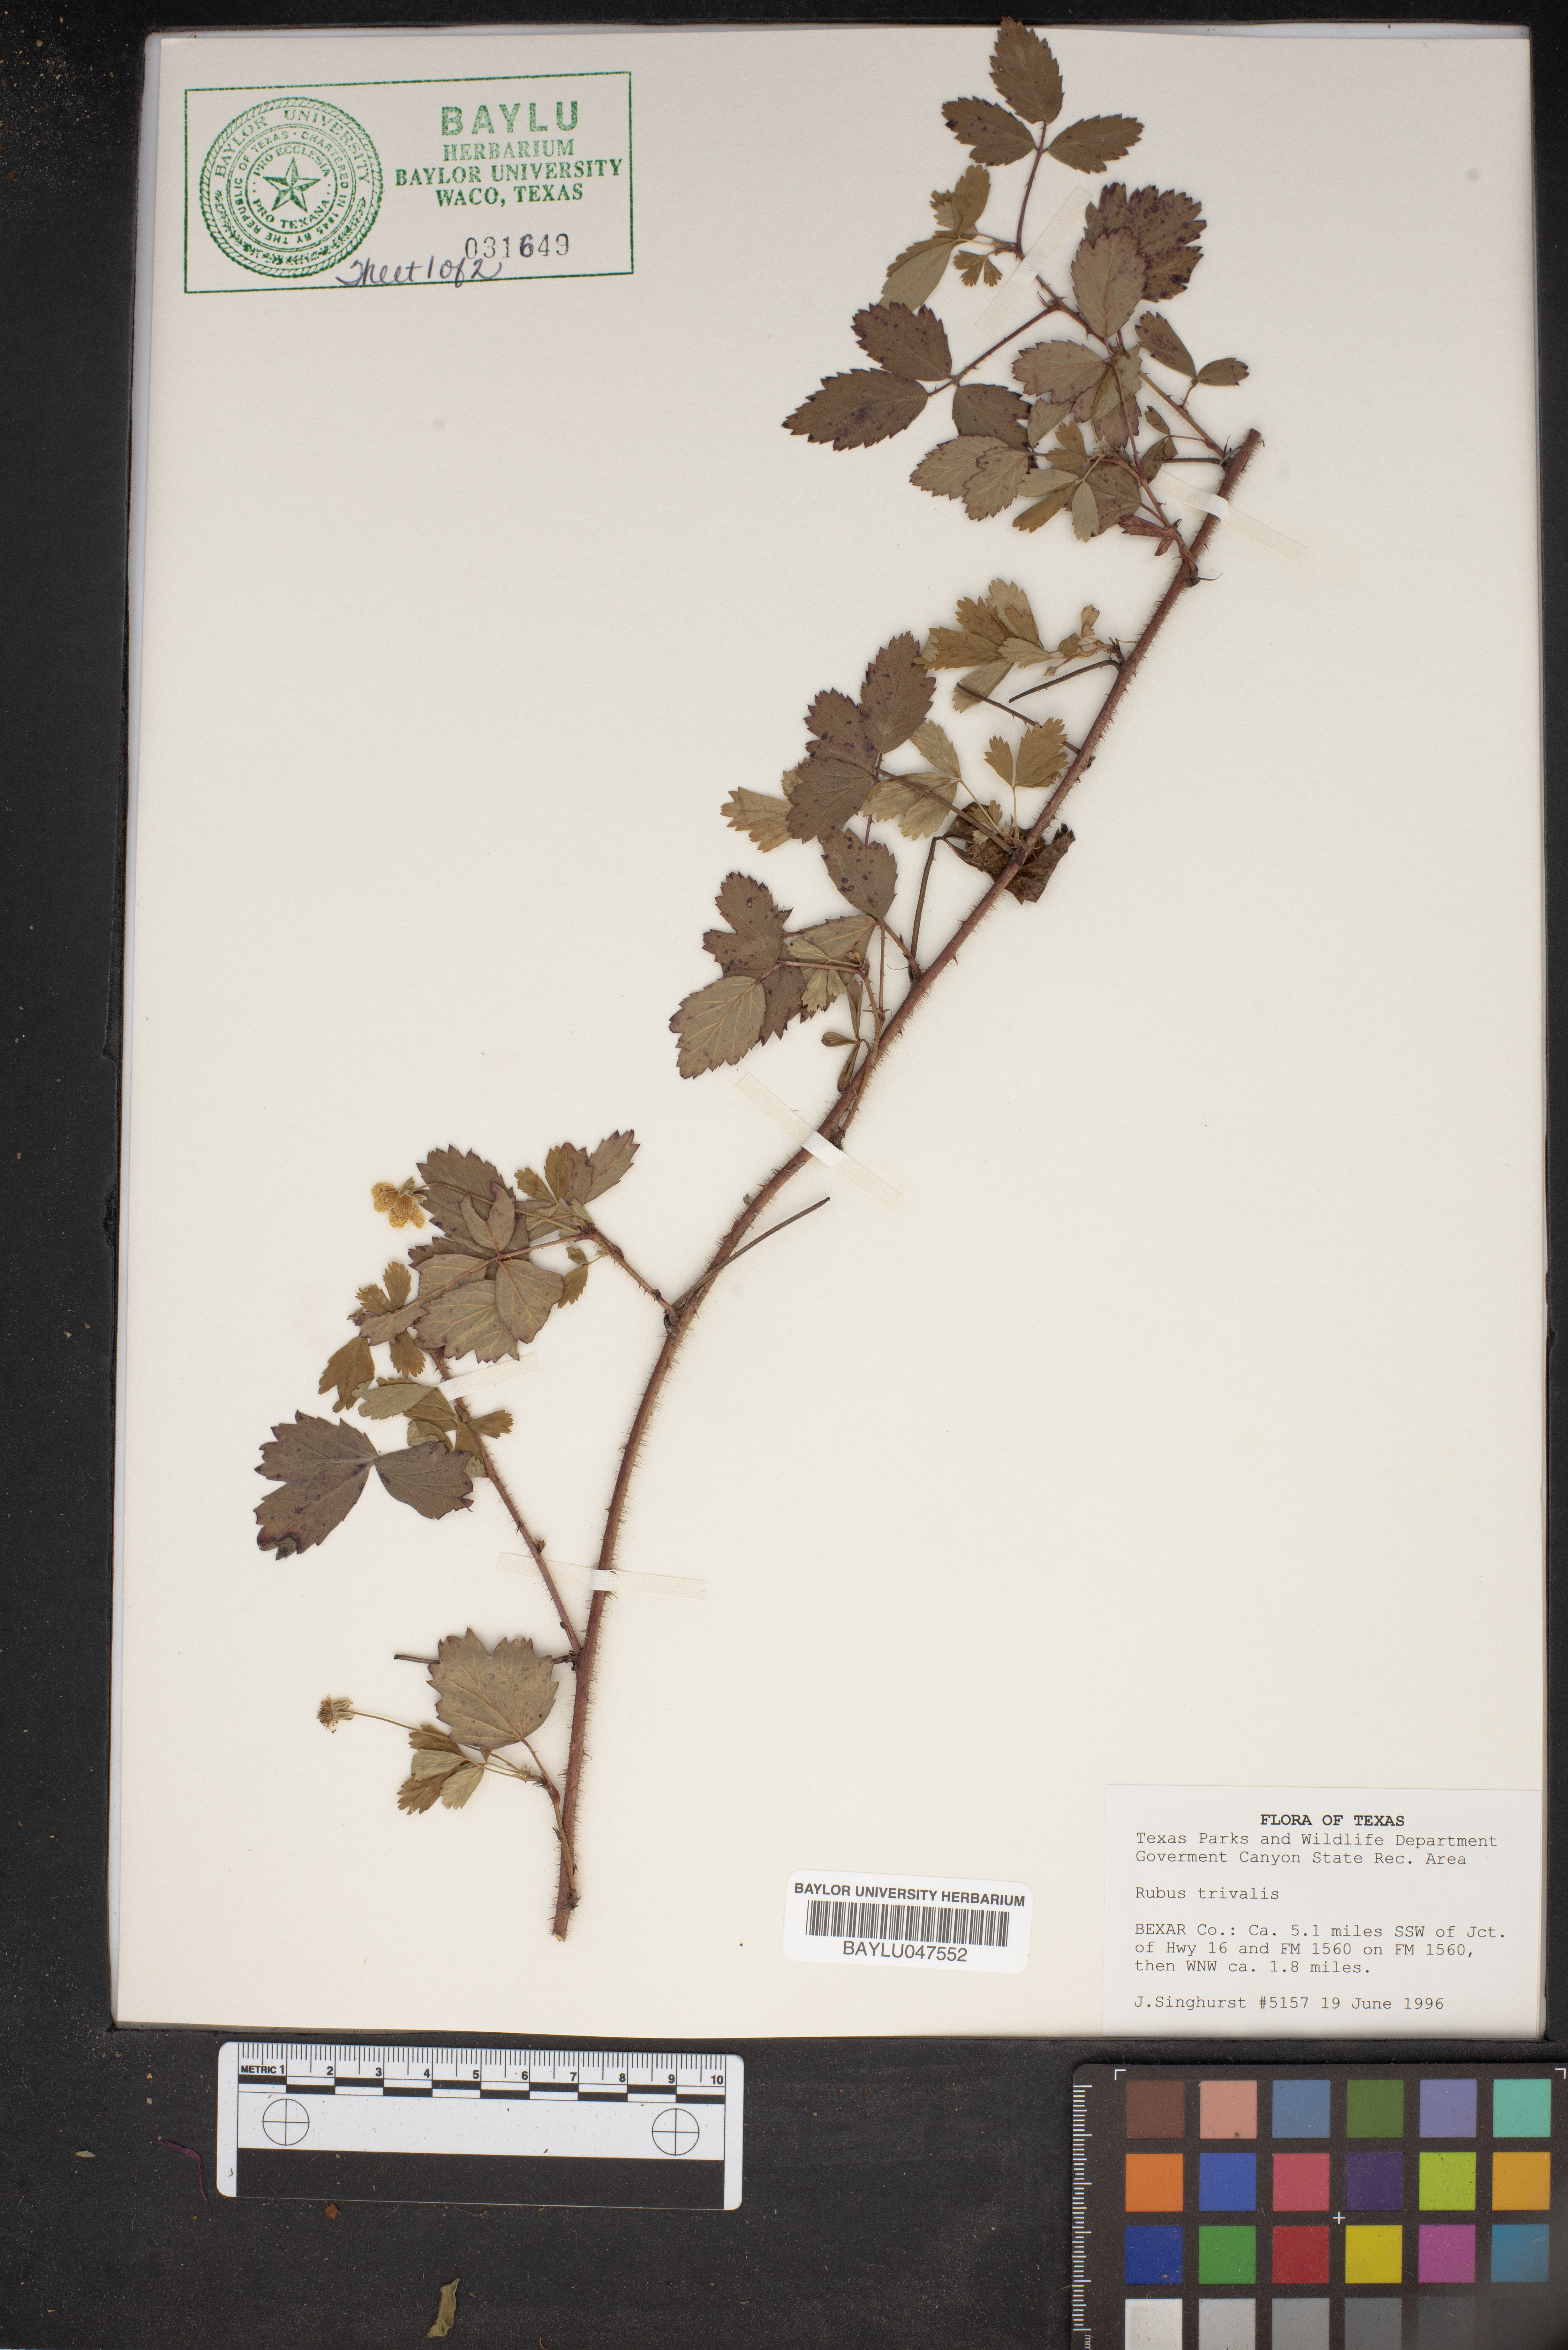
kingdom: Plantae
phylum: Tracheophyta
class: Magnoliopsida
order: Rosales
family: Rosaceae
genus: Rubus
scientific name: Rubus trivialis
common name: Southern dewberry
